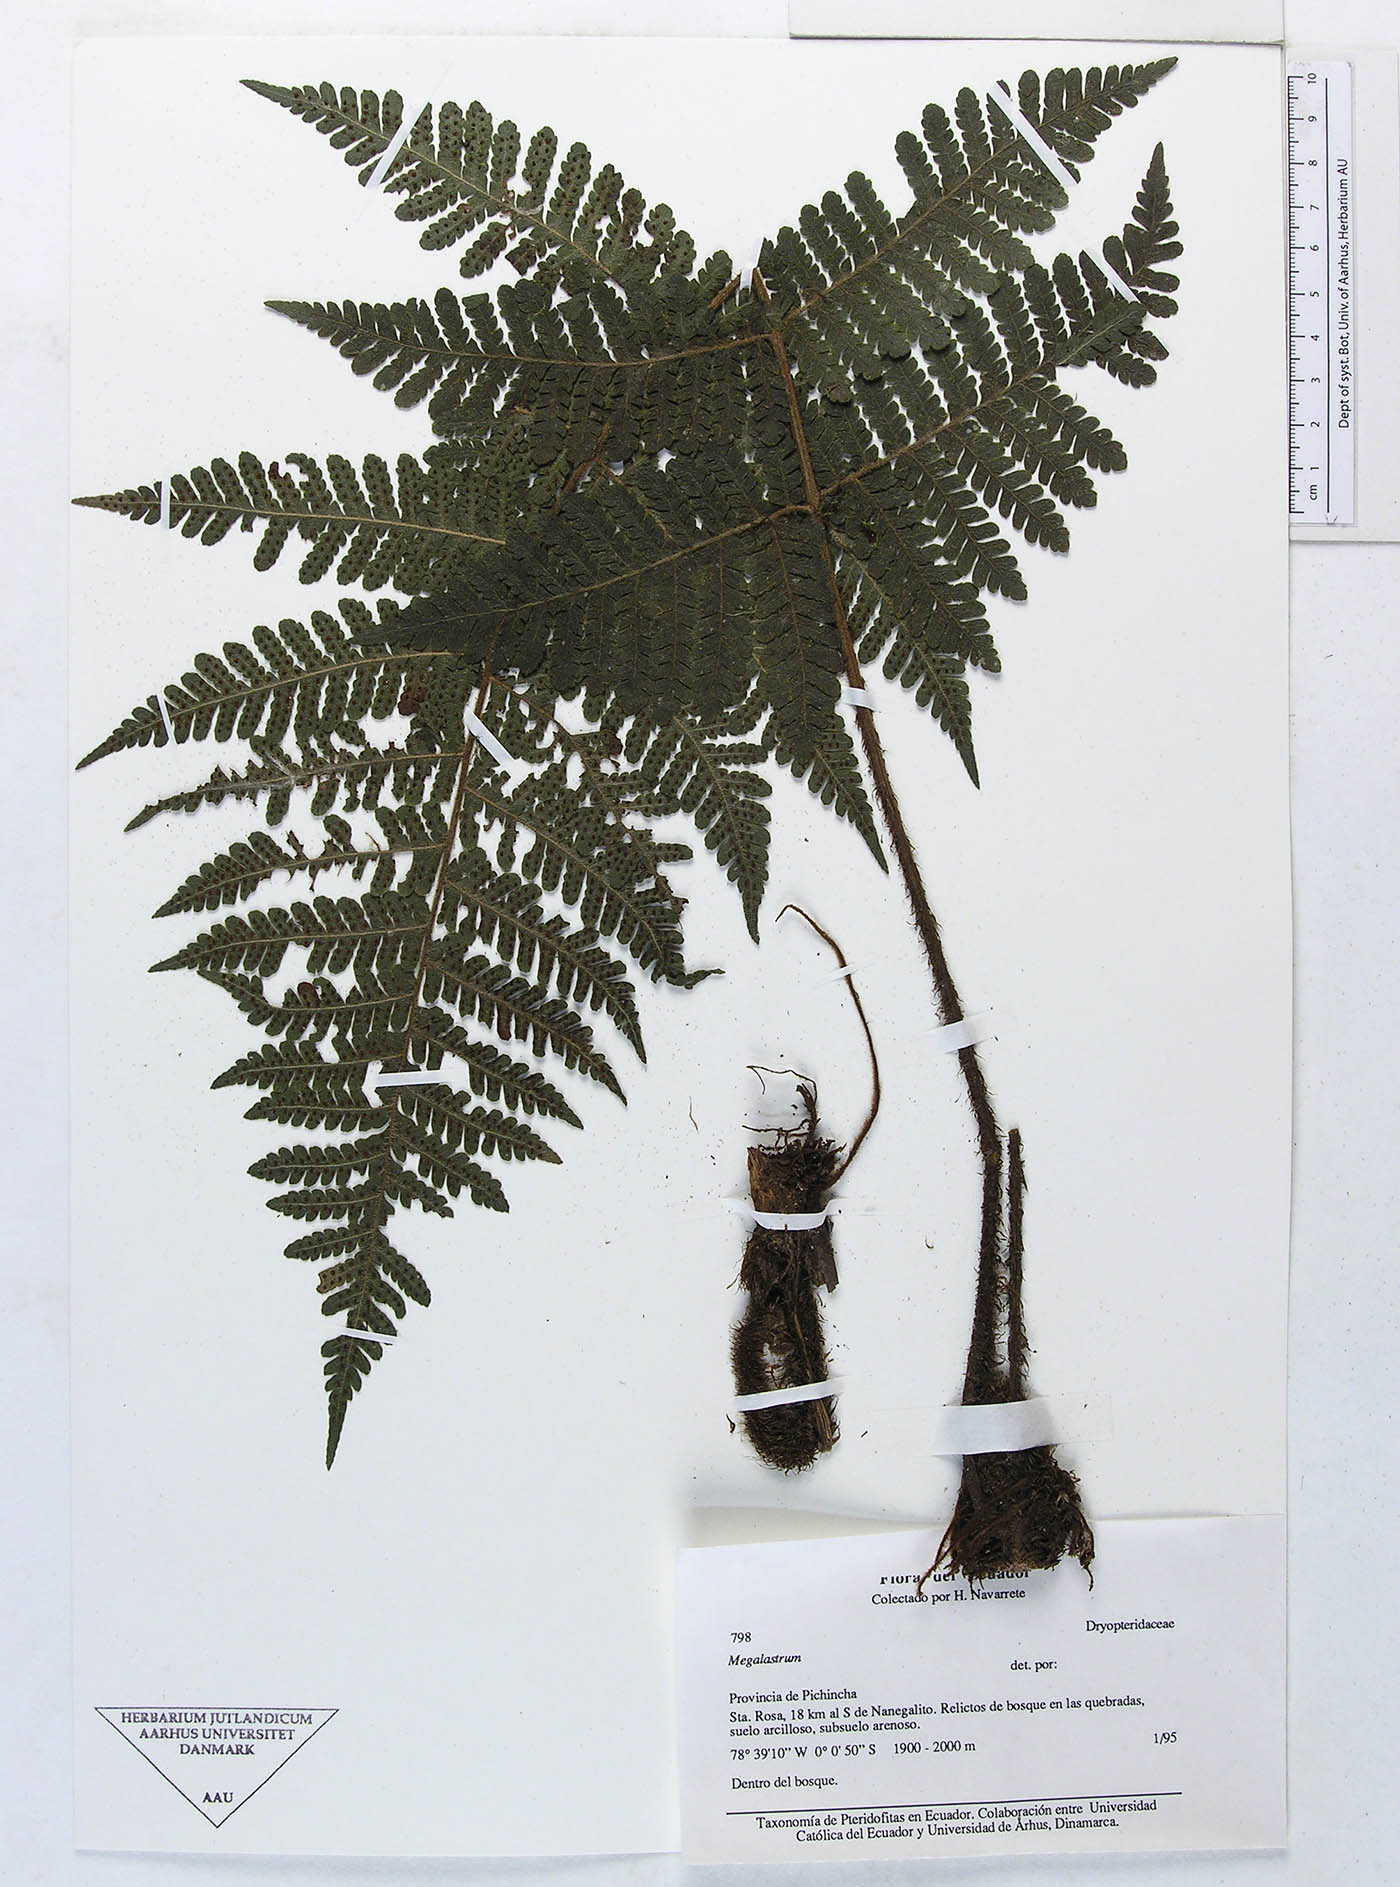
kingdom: Plantae
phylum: Tracheophyta
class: Polypodiopsida
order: Polypodiales
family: Dryopteridaceae
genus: Megalastrum
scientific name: Megalastrum insigne
